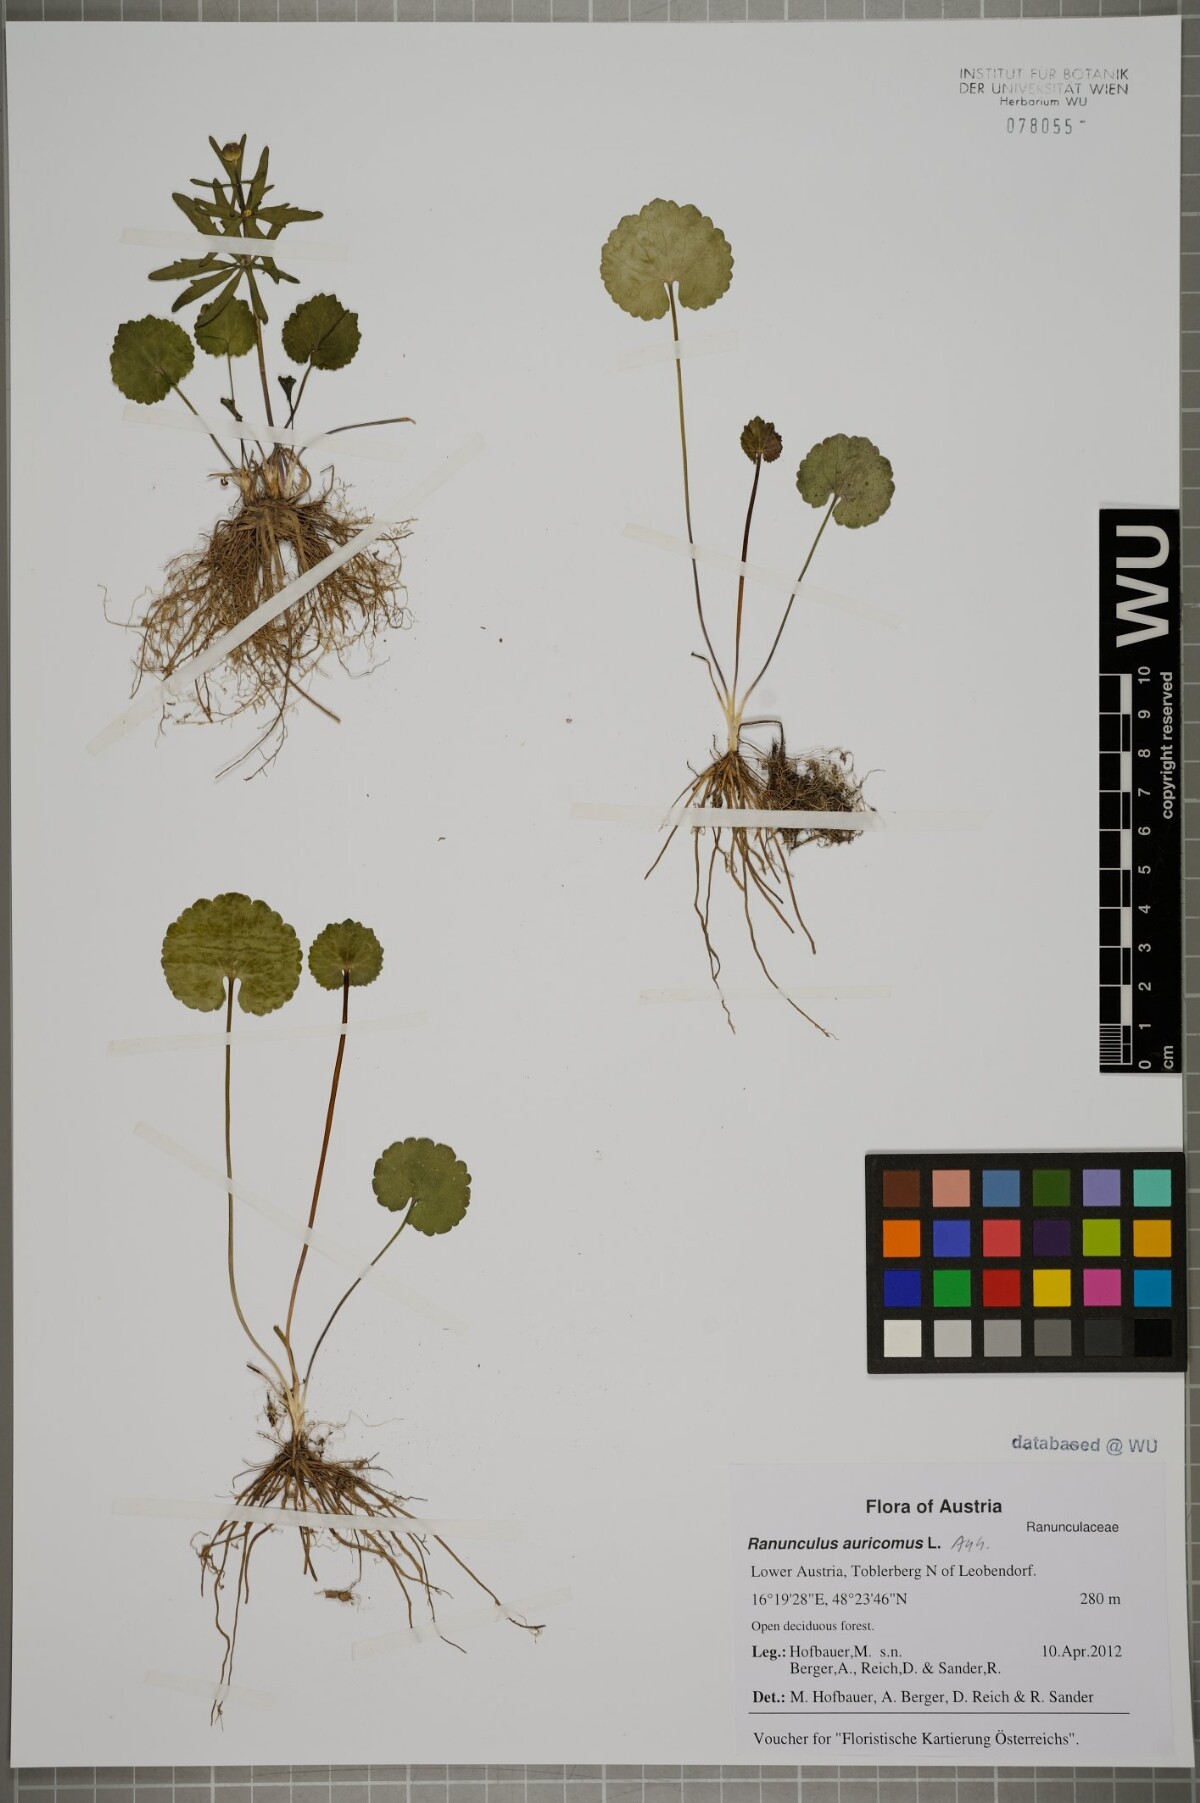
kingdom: Plantae
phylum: Tracheophyta
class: Magnoliopsida
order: Ranunculales
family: Ranunculaceae
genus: Ranunculus
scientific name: Ranunculus auricomus
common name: Goldilocks buttercup
